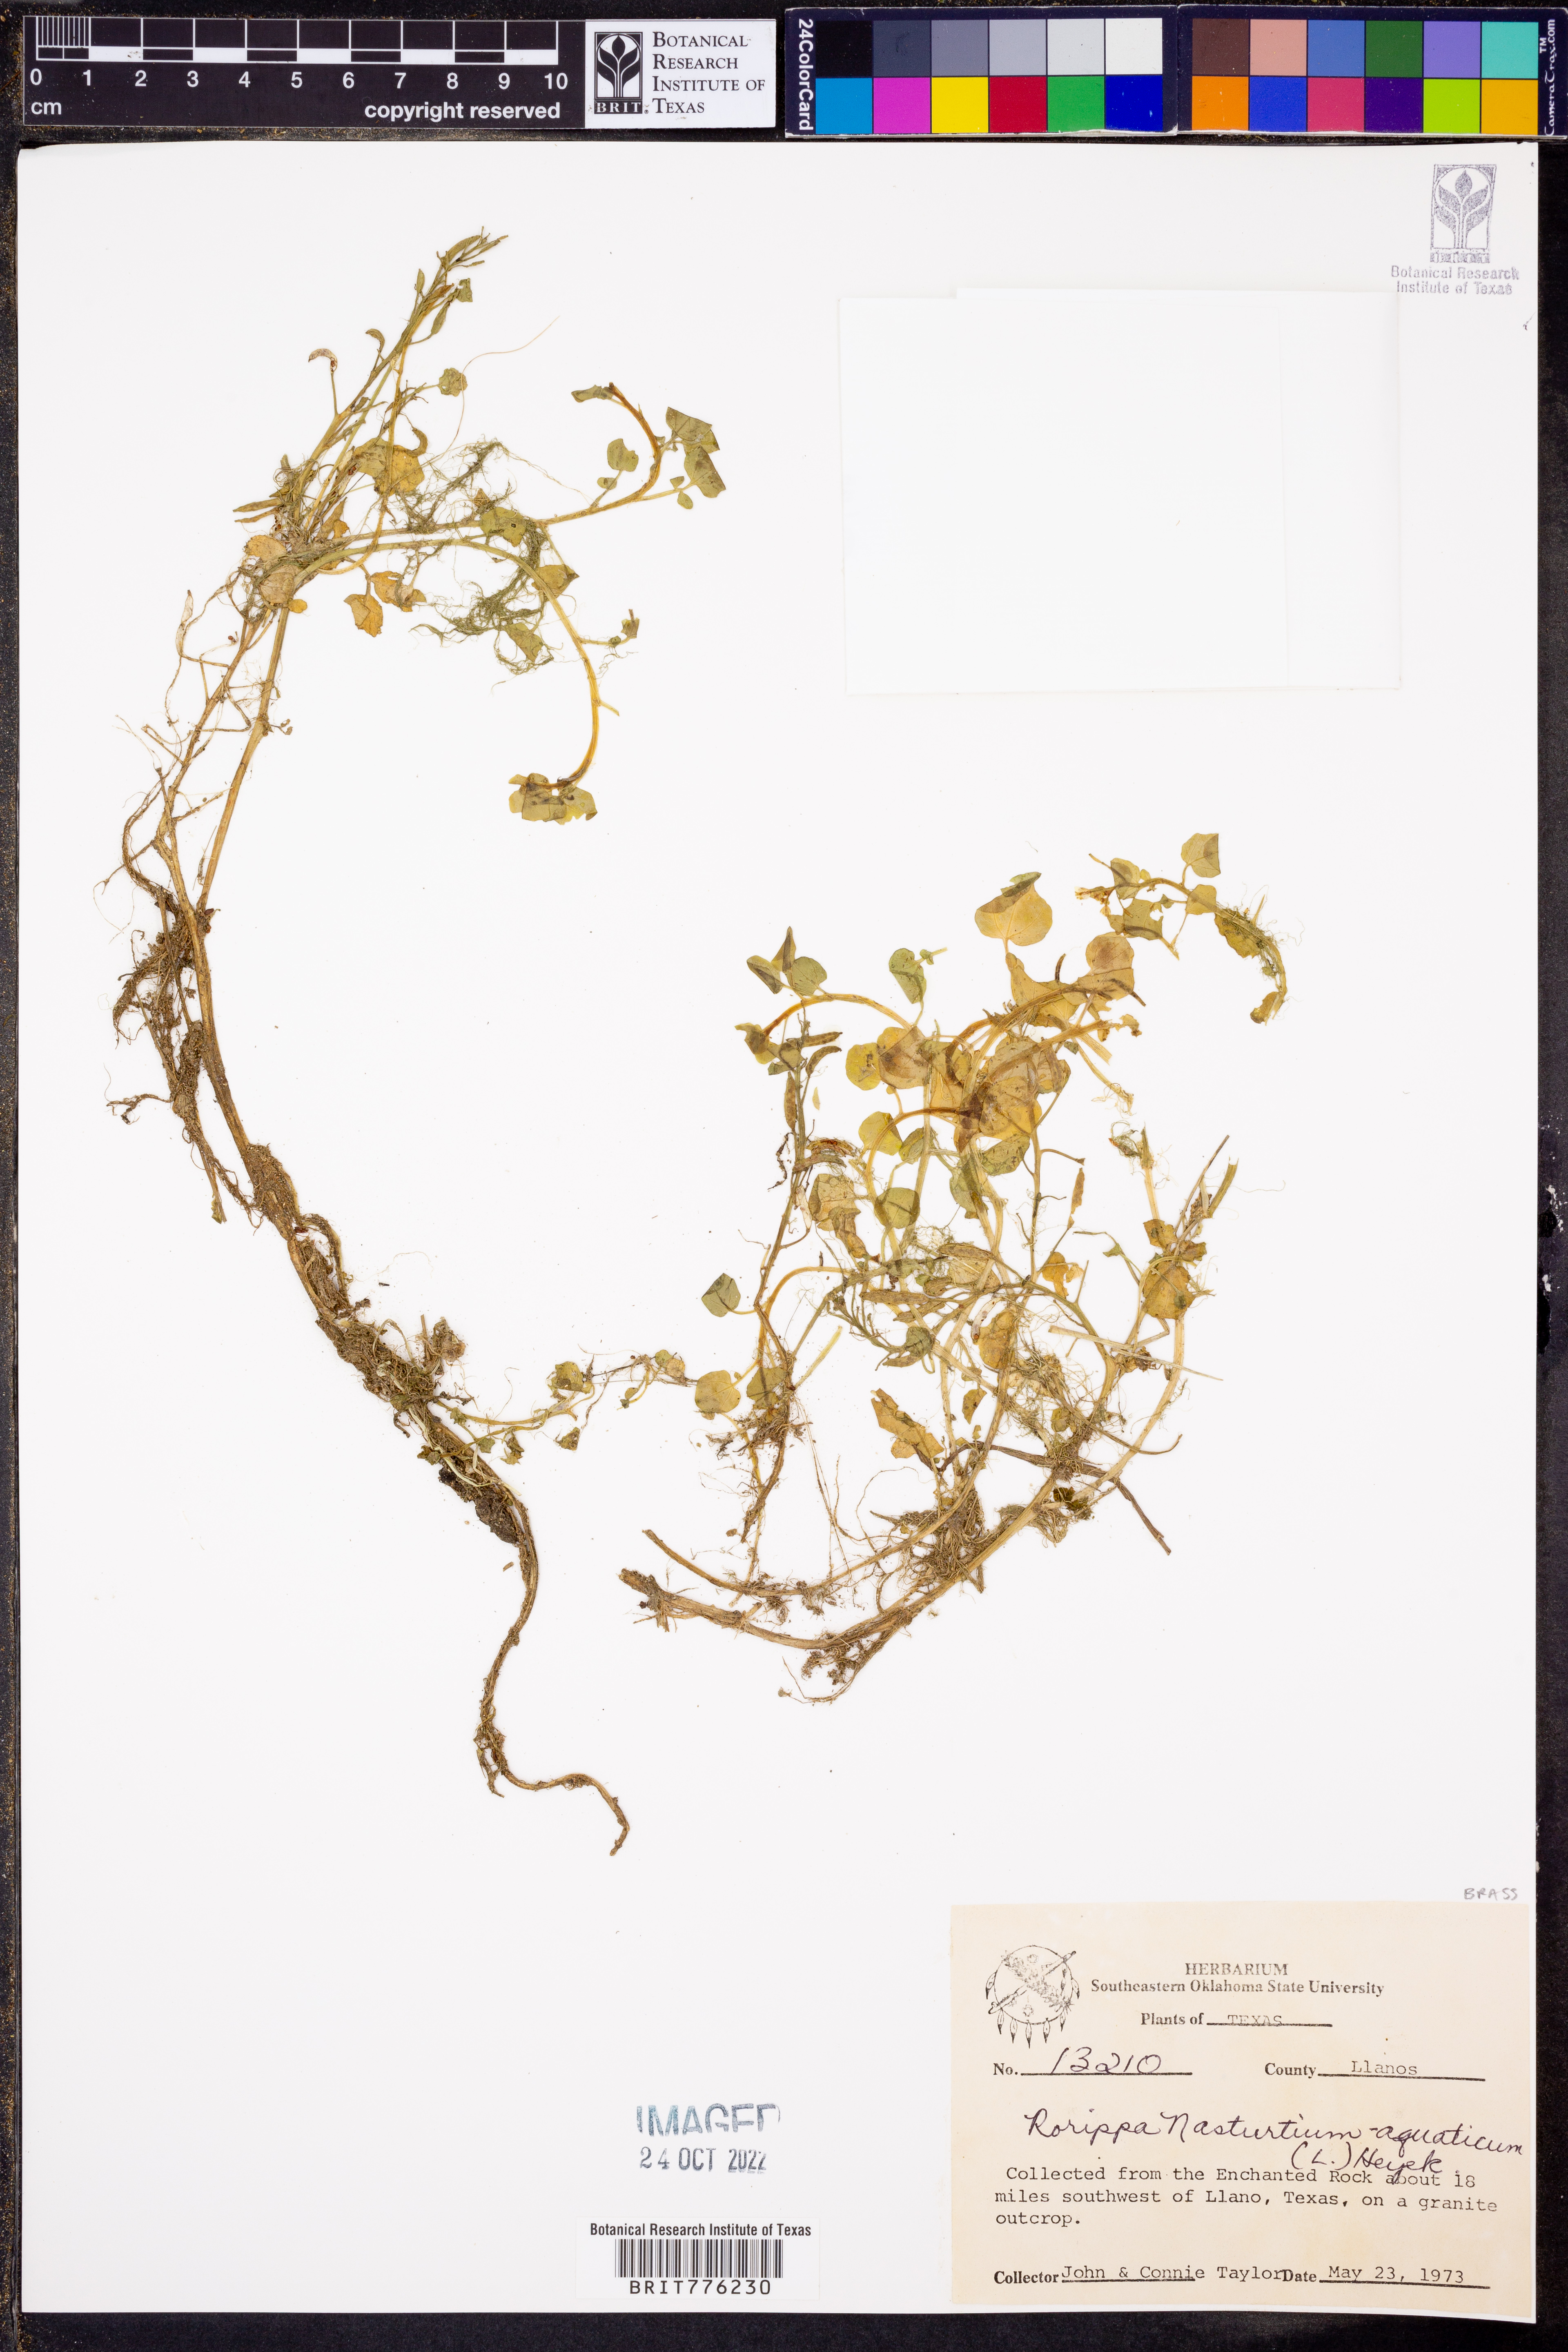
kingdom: Plantae
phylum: Tracheophyta
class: Magnoliopsida
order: Brassicales
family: Brassicaceae
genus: Nasturtium
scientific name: Nasturtium officinale
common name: Watercress
